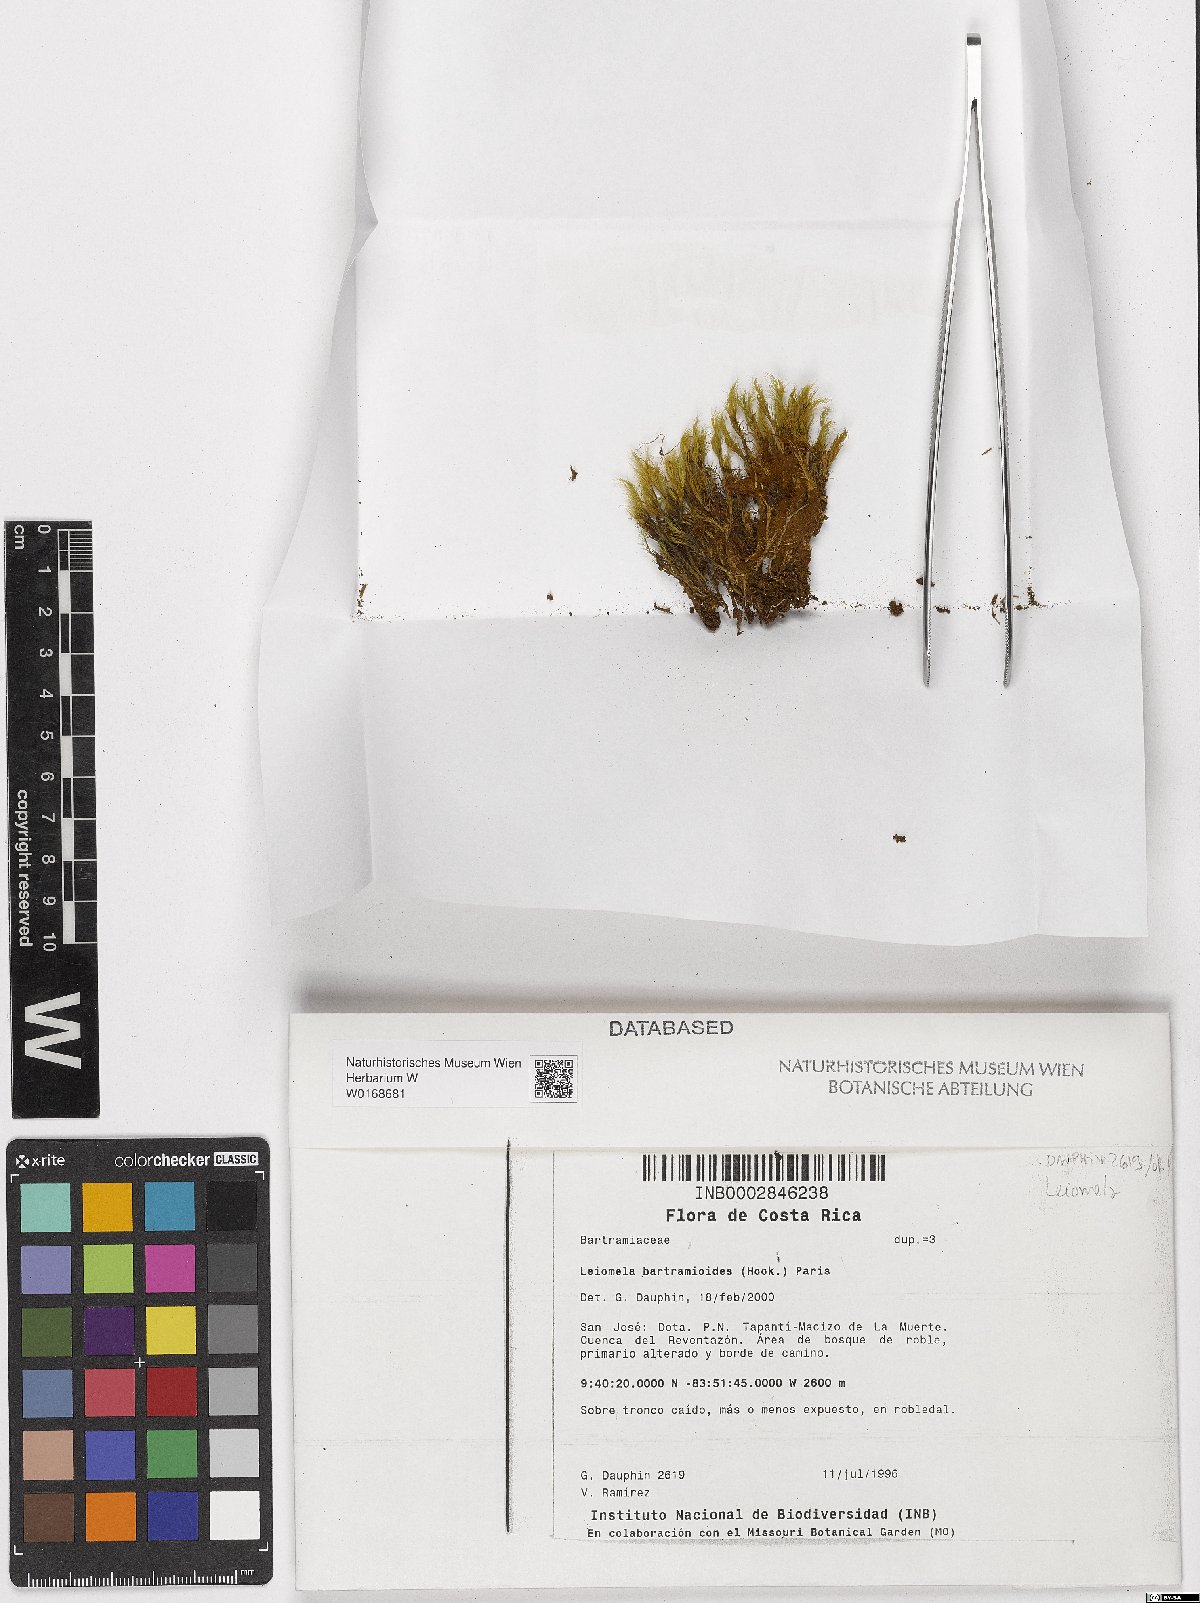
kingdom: Plantae
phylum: Bryophyta
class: Bryopsida
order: Bartramiales
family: Bartramiaceae
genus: Leiomela
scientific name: Leiomela bartramioides
